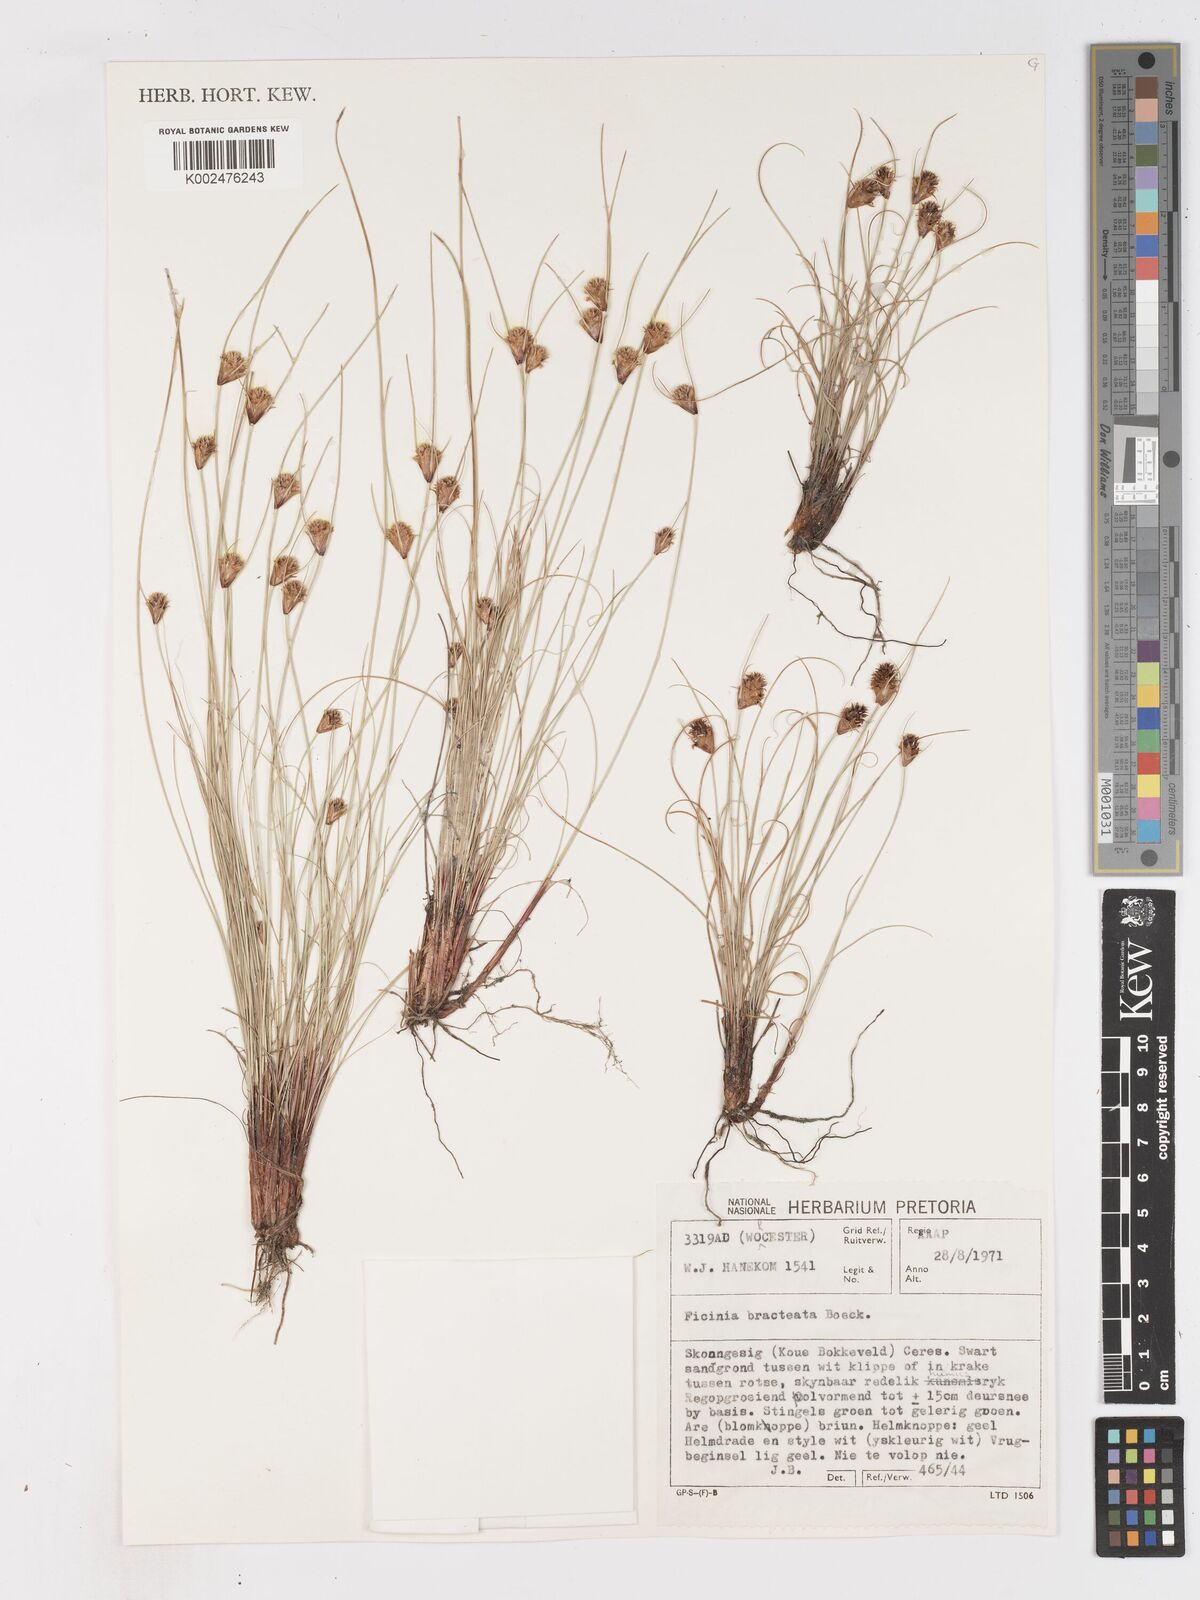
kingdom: Plantae
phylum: Tracheophyta
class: Liliopsida
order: Poales
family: Cyperaceae
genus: Ficinia
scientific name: Ficinia nigrescens
